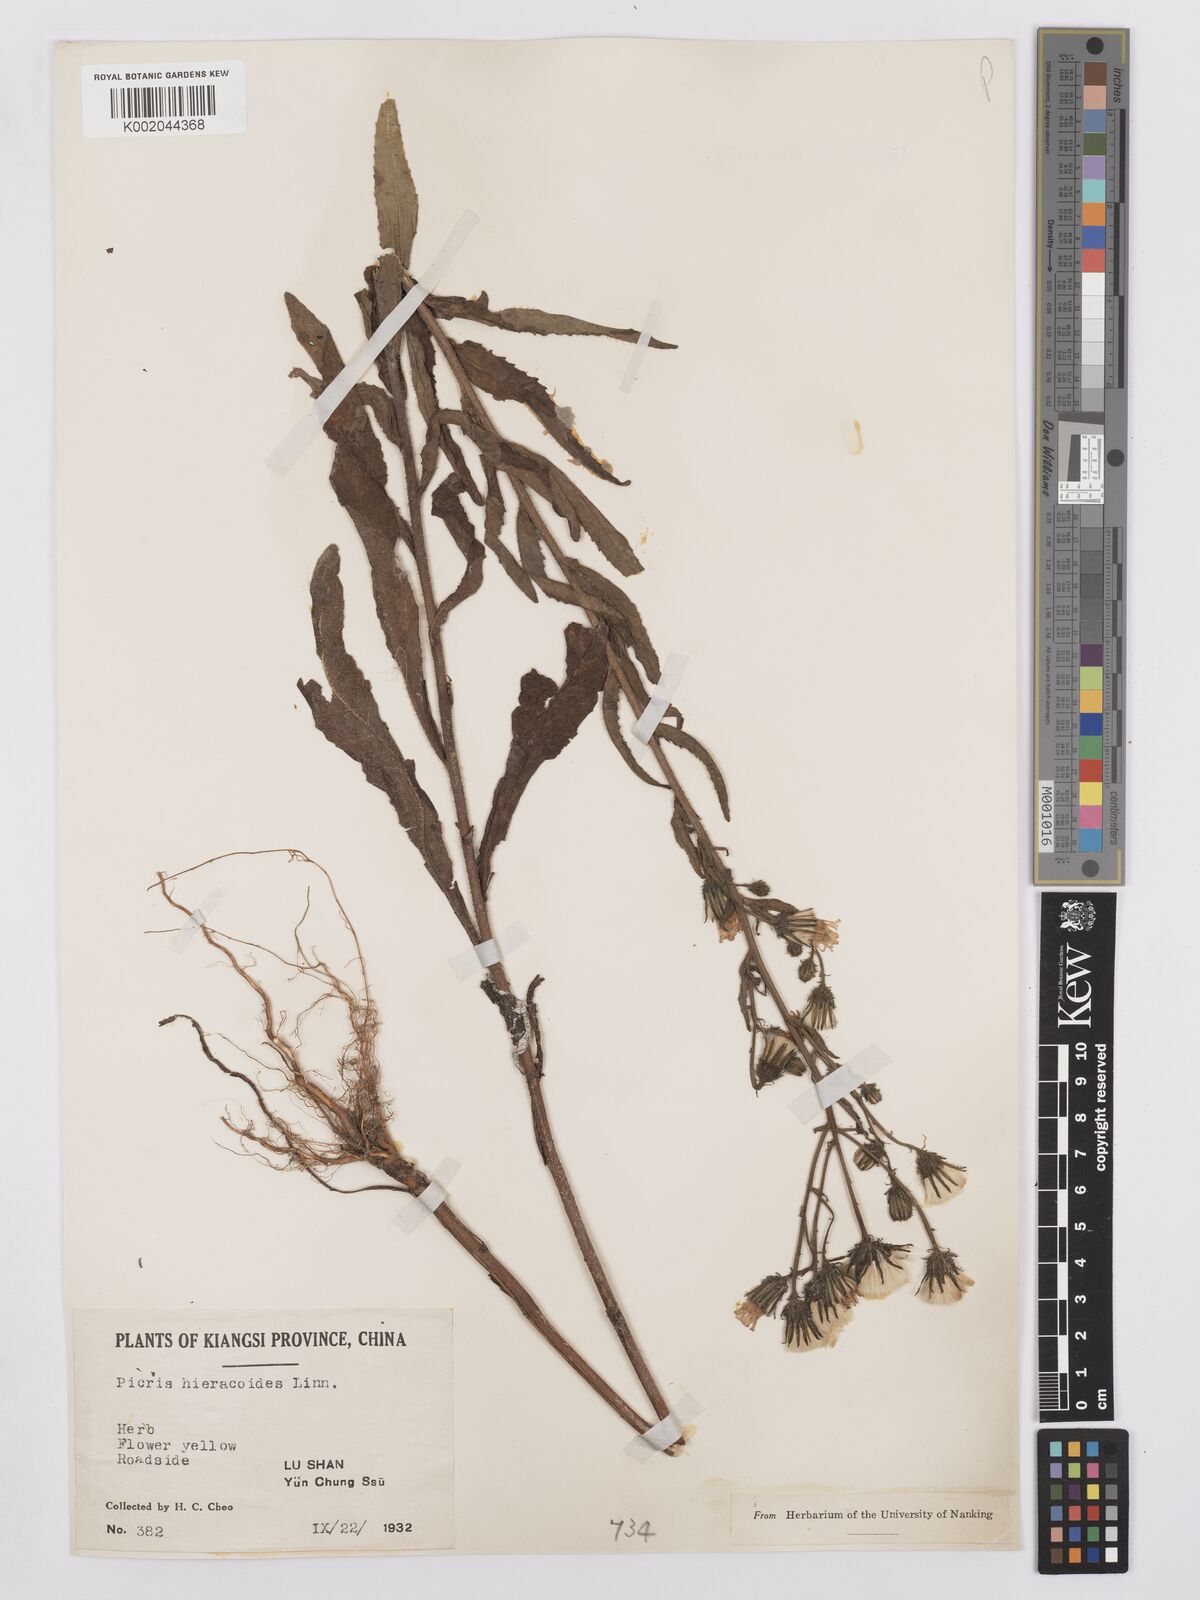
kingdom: Plantae
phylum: Tracheophyta
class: Magnoliopsida
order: Asterales
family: Asteraceae
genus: Picris
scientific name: Picris hieracioides
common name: Hawkweed oxtongue
